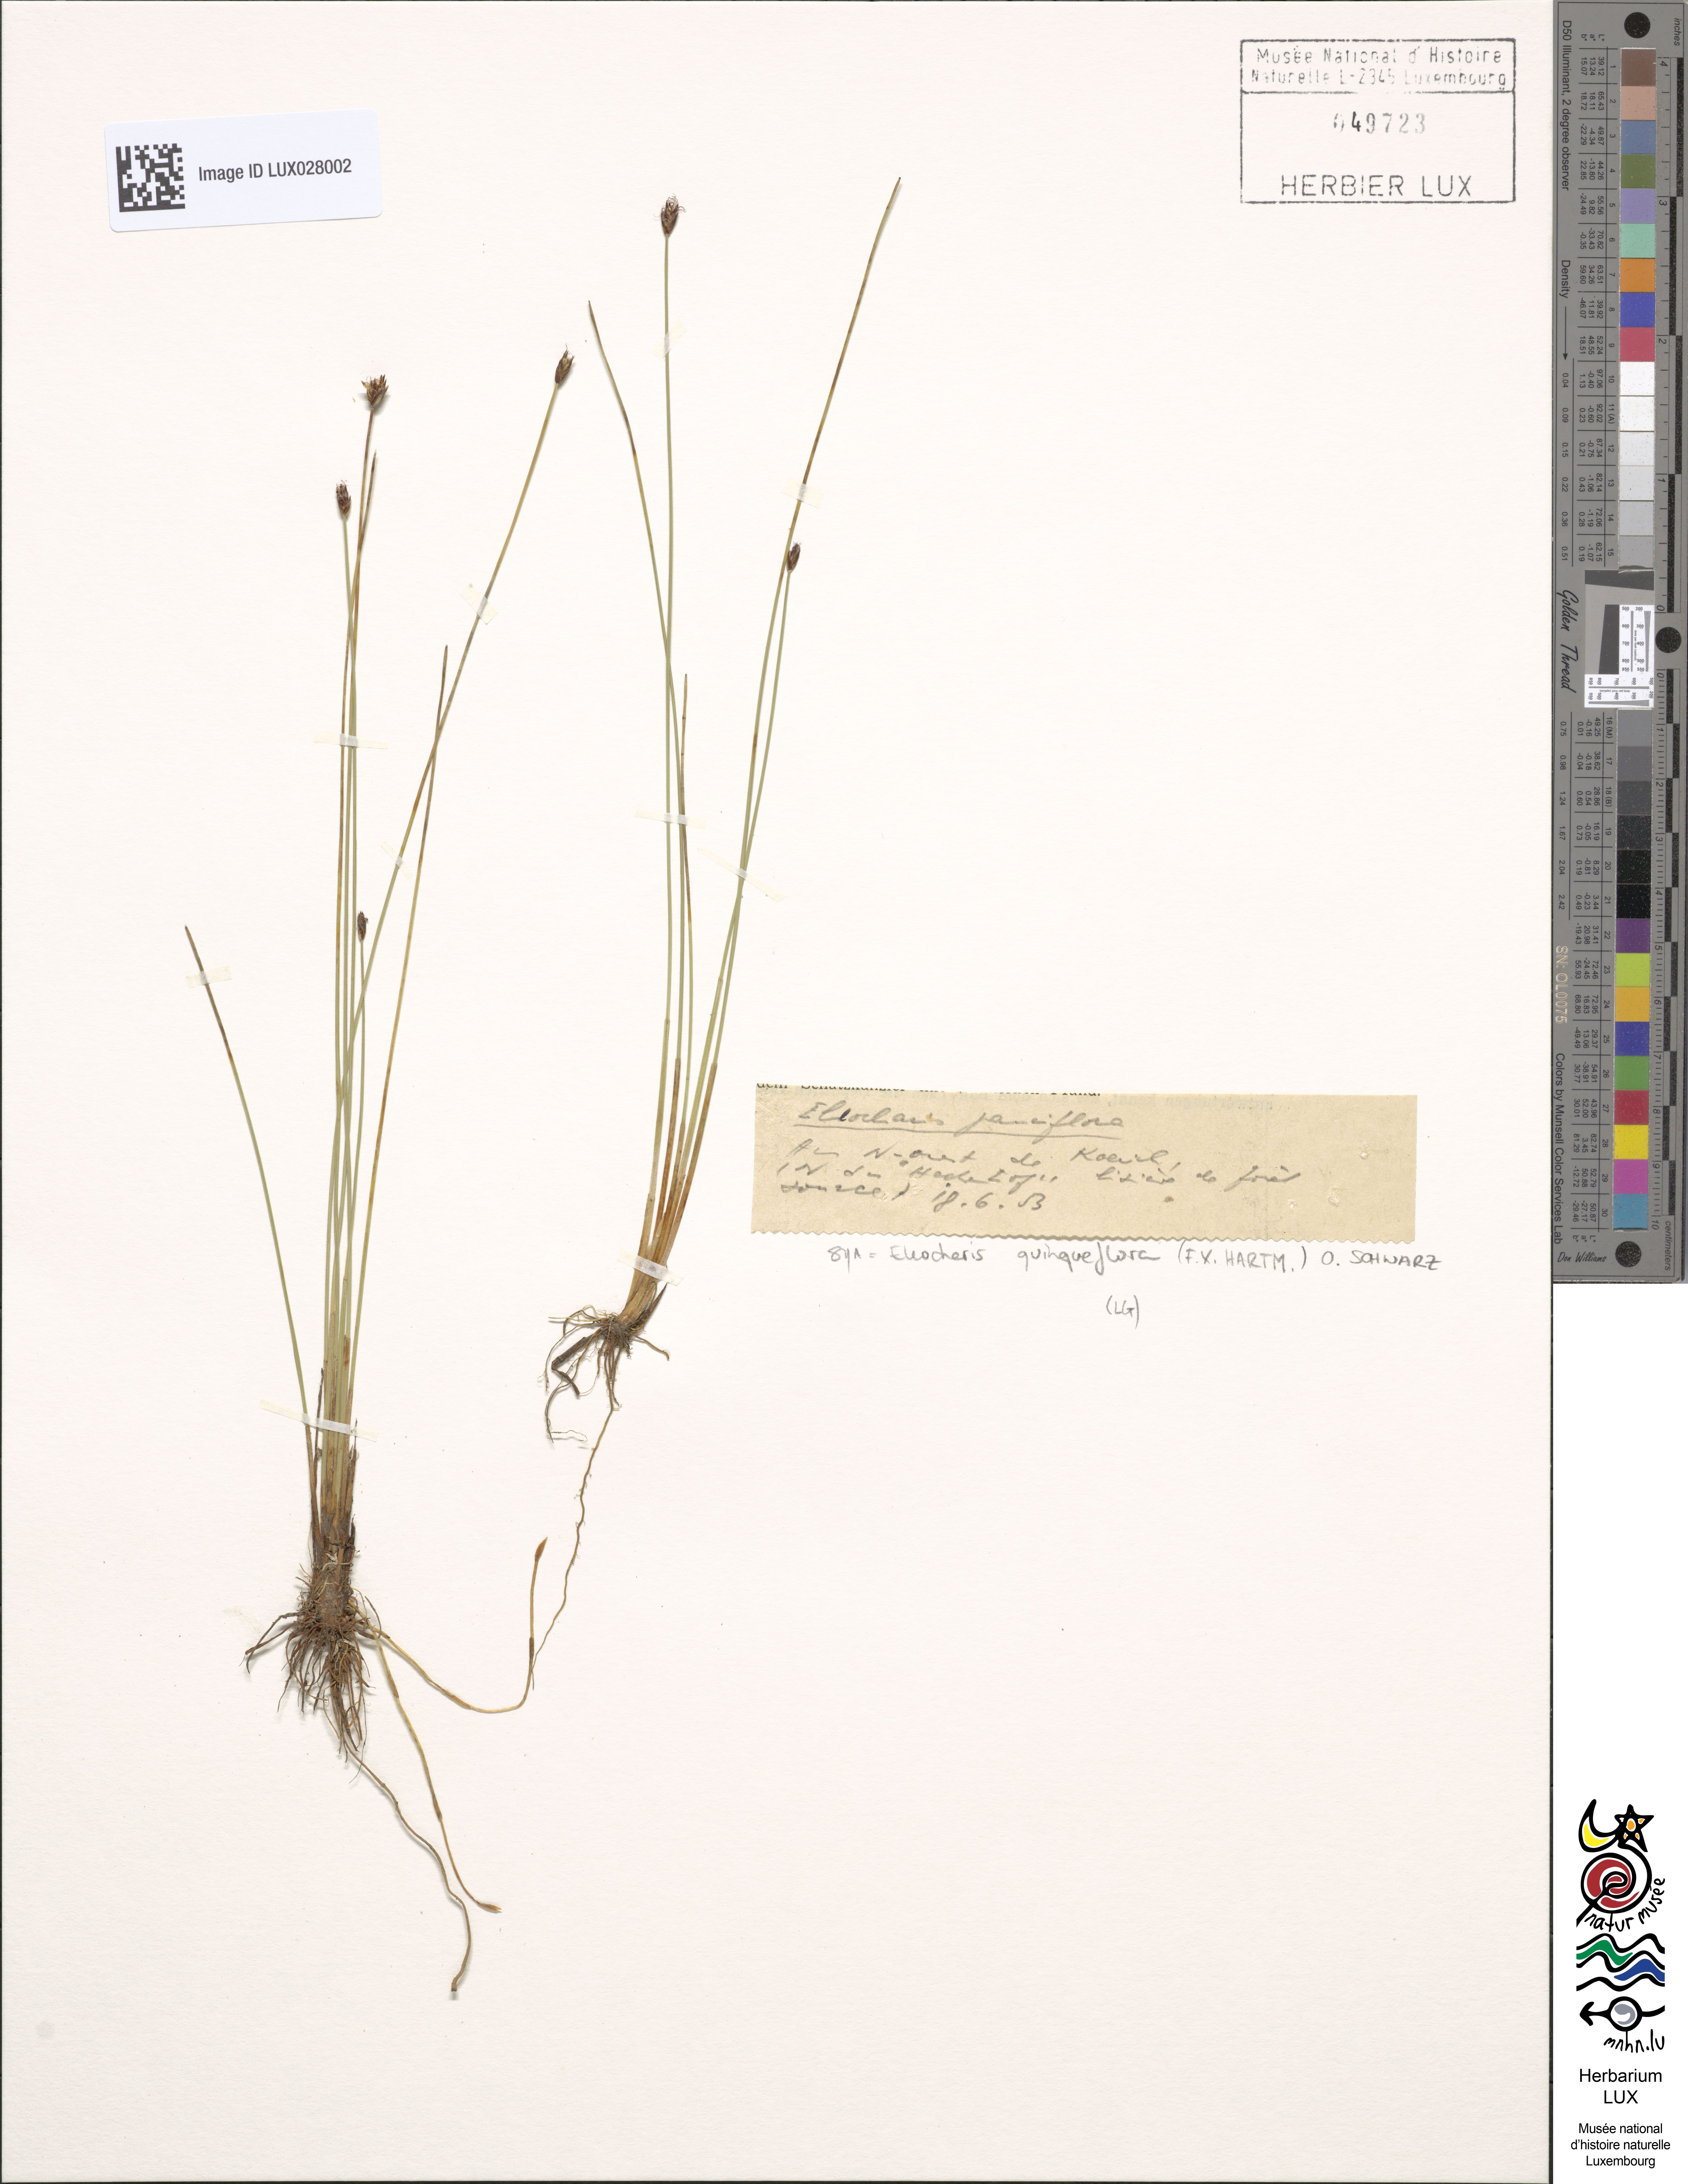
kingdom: Plantae
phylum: Tracheophyta
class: Liliopsida
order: Poales
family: Cyperaceae
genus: Eleocharis
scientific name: Eleocharis quinqueflora
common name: Few-flowered spike-rush
